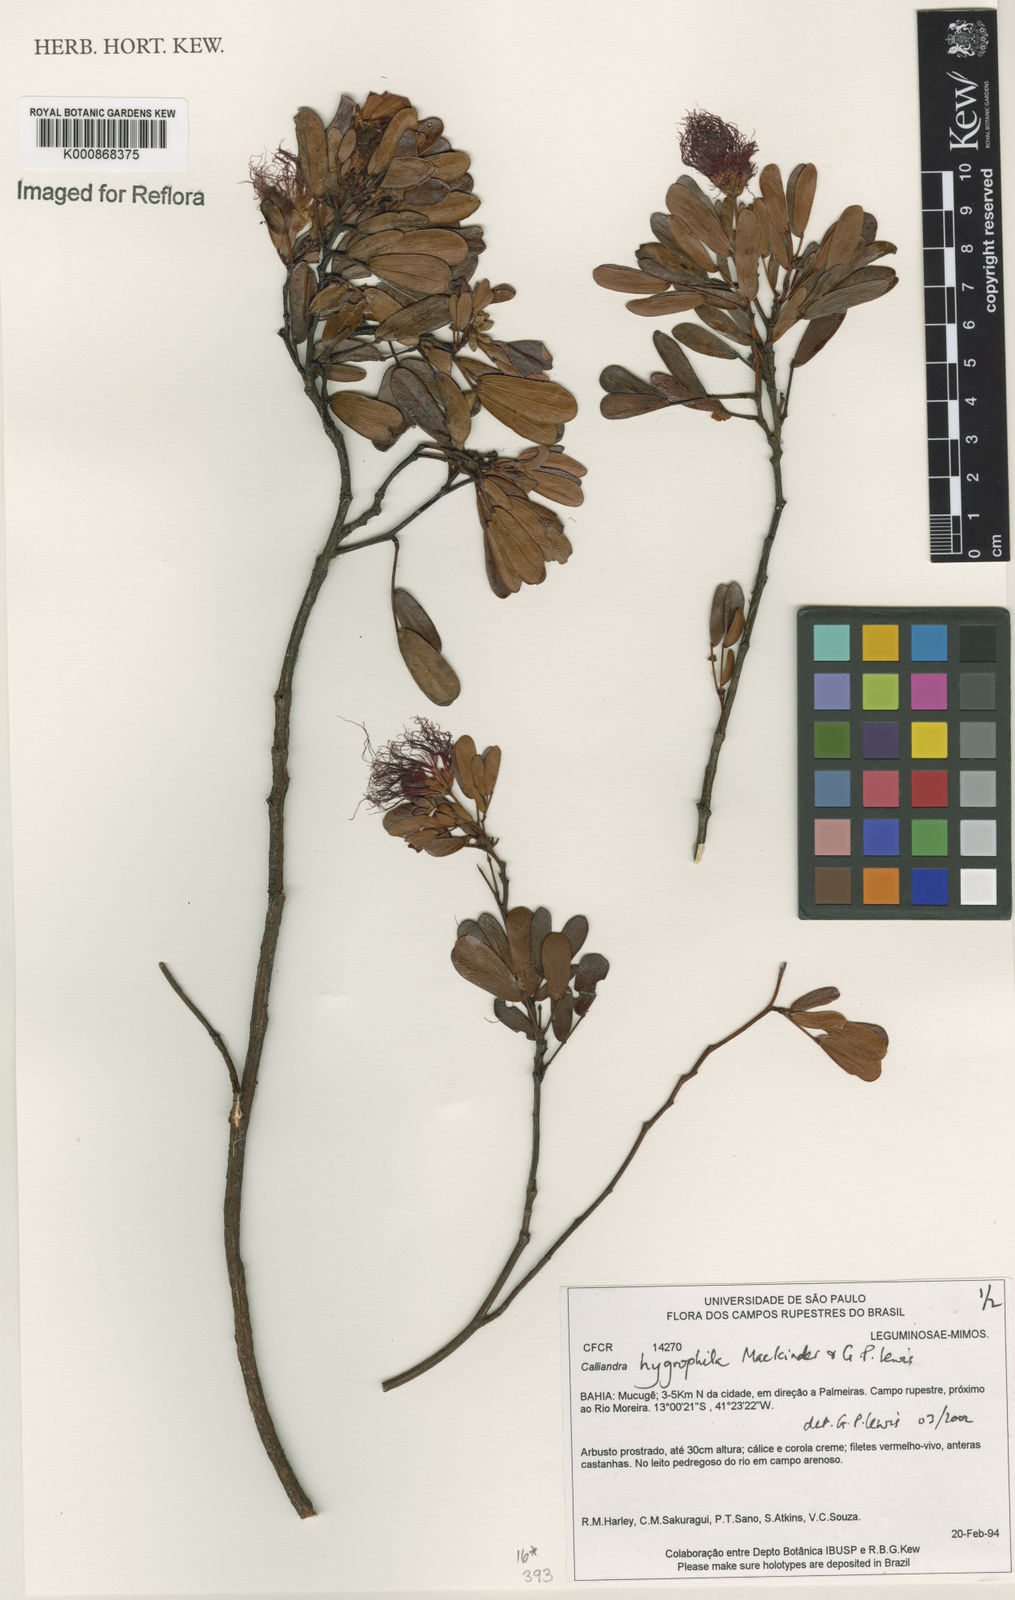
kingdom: Plantae
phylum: Tracheophyta
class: Magnoliopsida
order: Fabales
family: Fabaceae
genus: Calliandra
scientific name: Calliandra hygrophila
